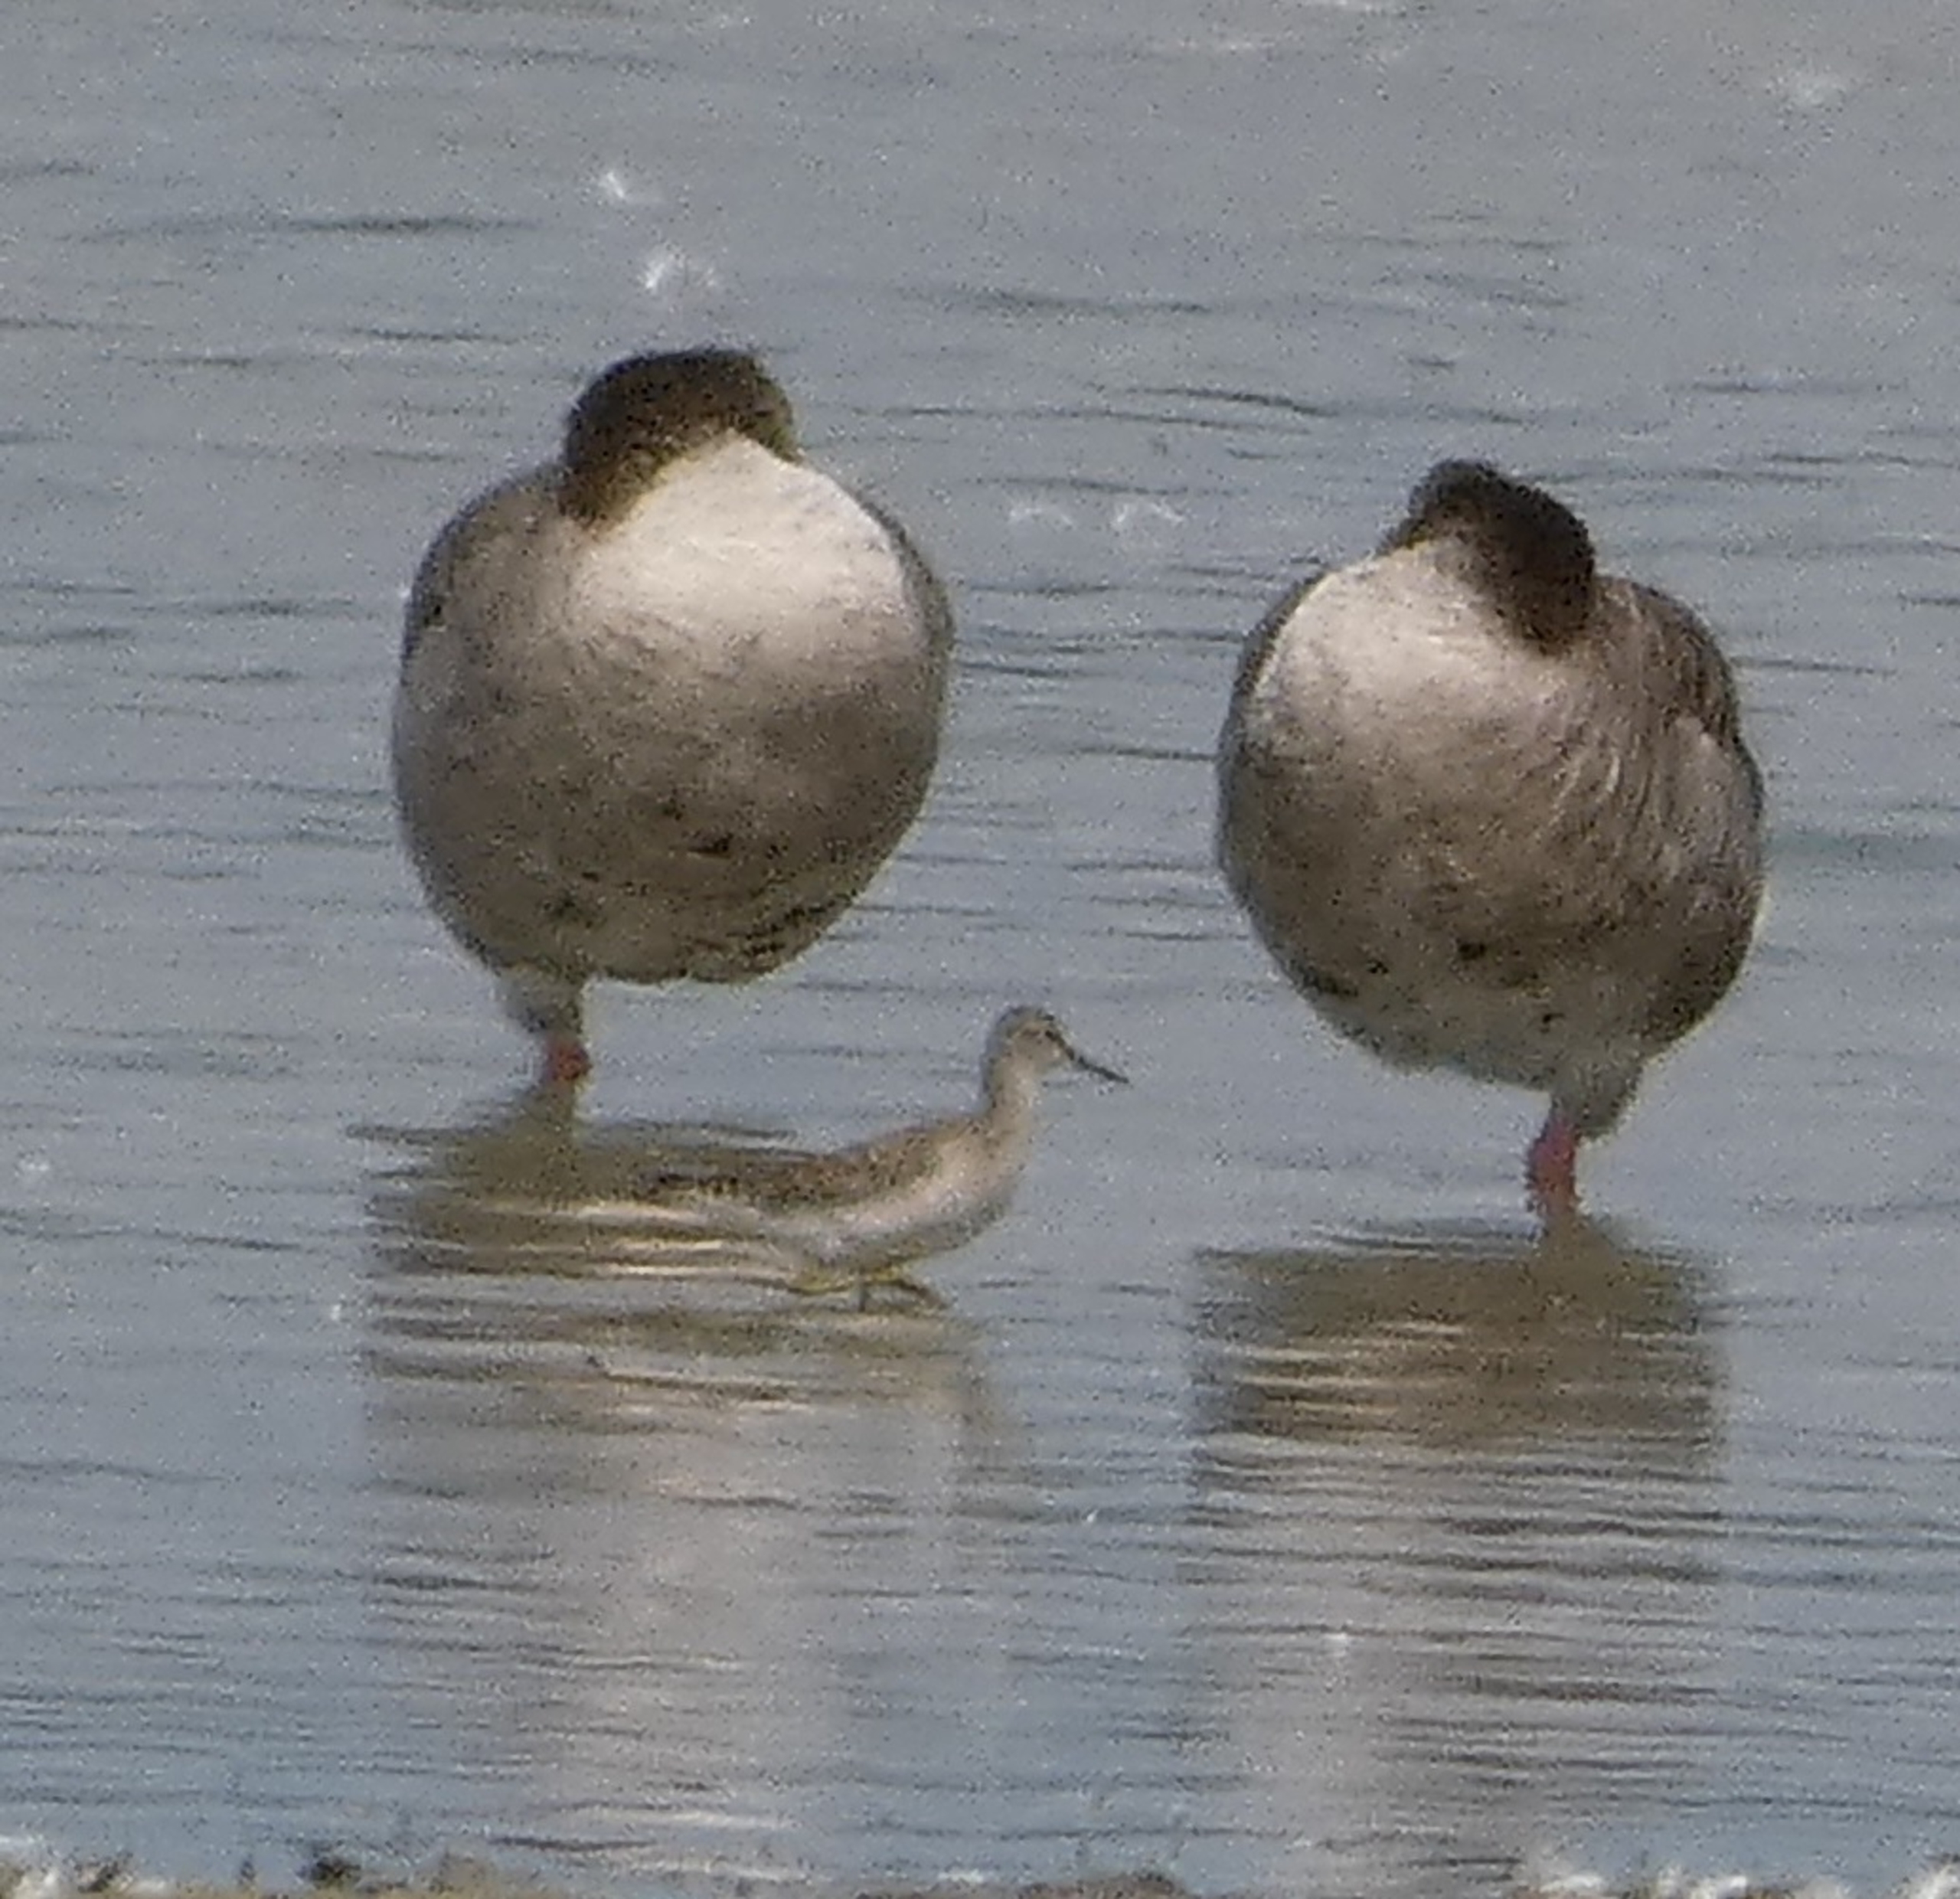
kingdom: Animalia
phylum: Chordata
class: Aves
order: Charadriiformes
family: Scolopacidae
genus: Tringa
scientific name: Tringa glareola
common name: Tinksmed
